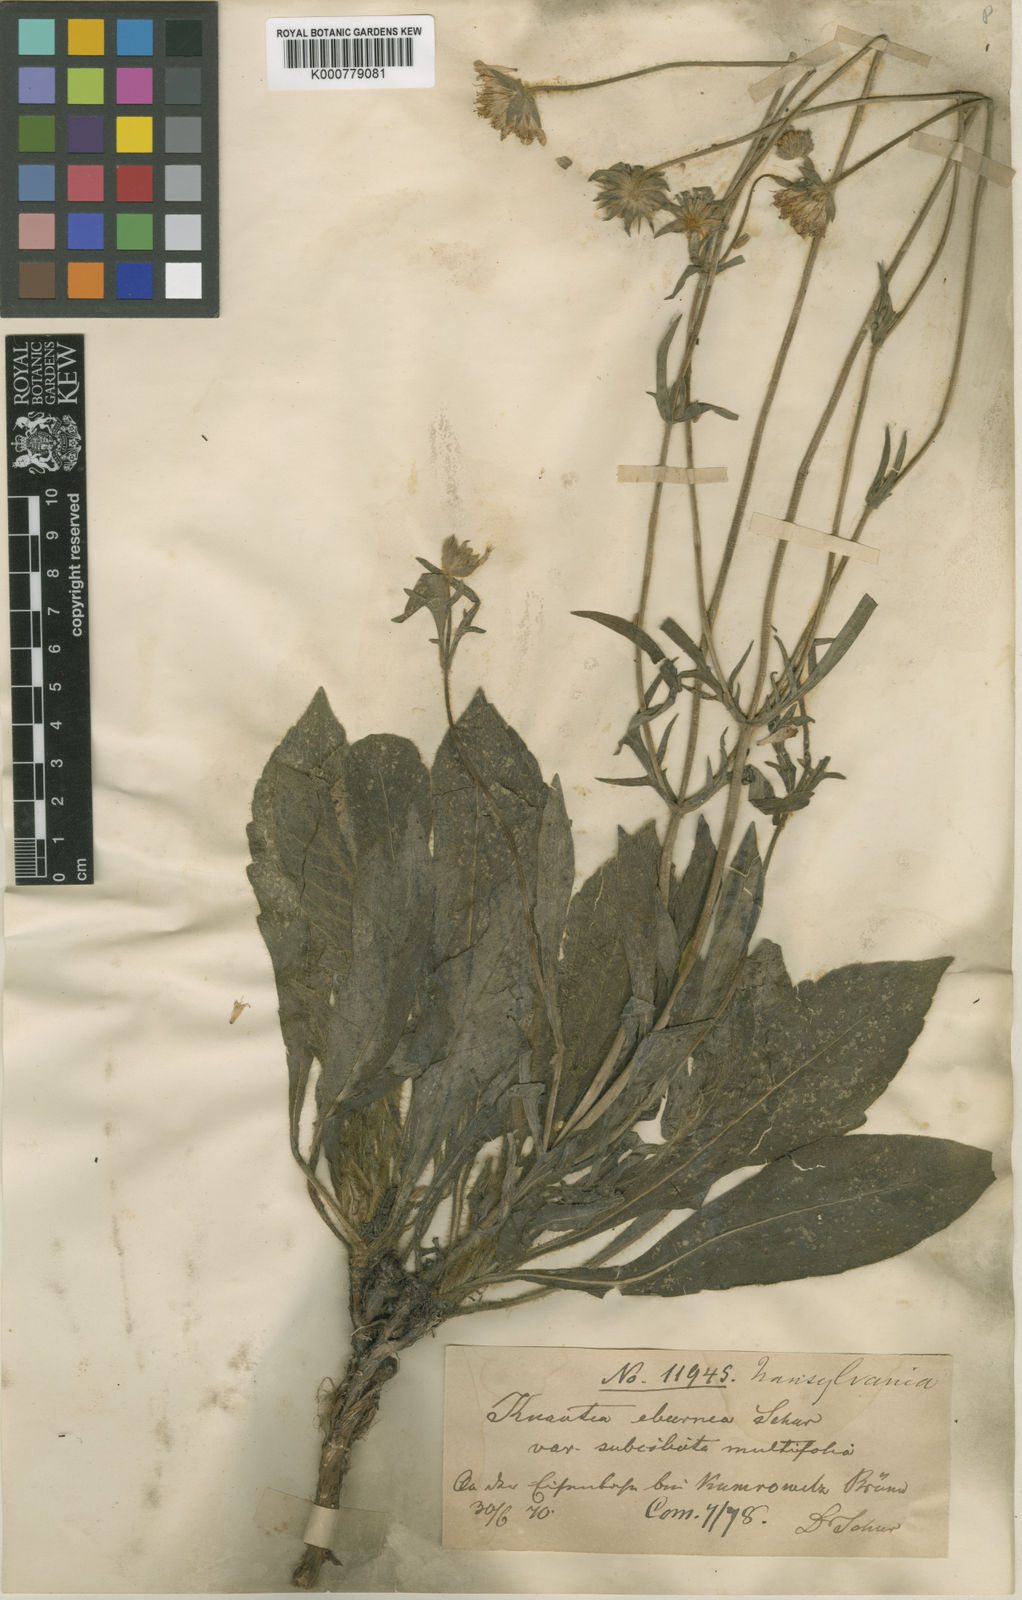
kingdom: Plantae
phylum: Tracheophyta
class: Magnoliopsida
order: Dipsacales
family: Caprifoliaceae
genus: Knautia
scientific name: Knautia dinarica
